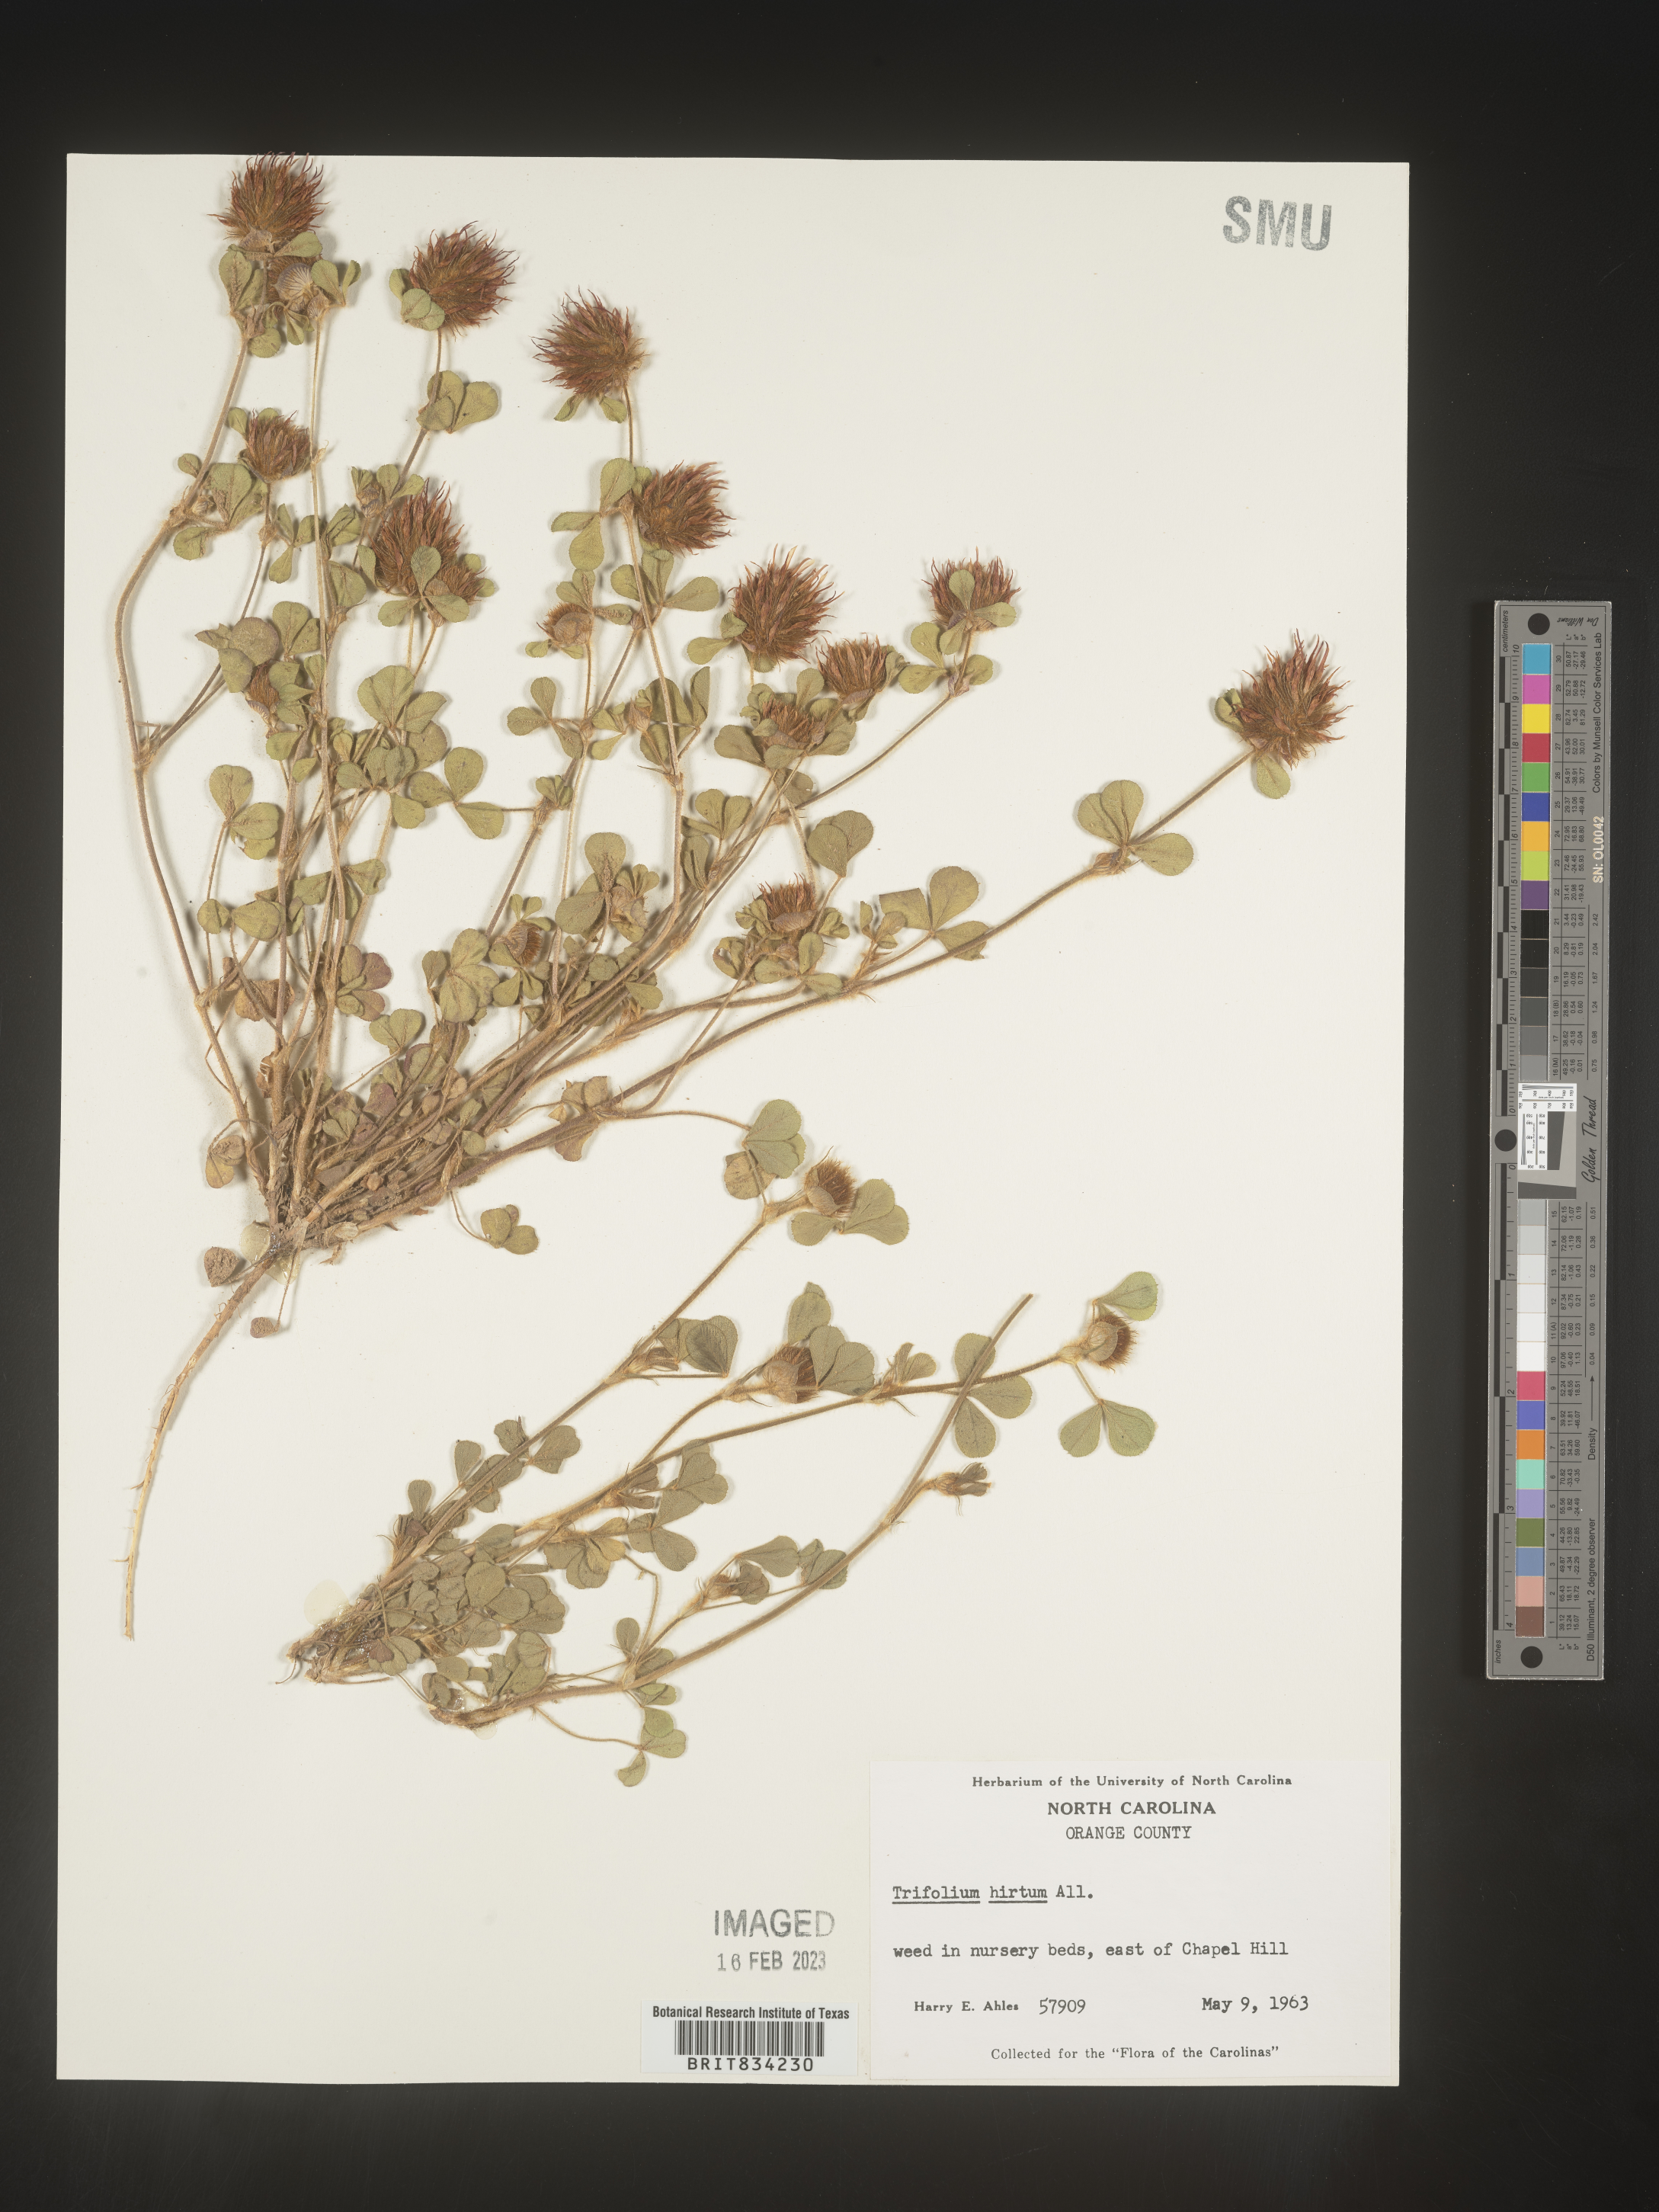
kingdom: Plantae
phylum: Tracheophyta
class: Magnoliopsida
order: Fabales
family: Fabaceae
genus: Trifolium
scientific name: Trifolium
